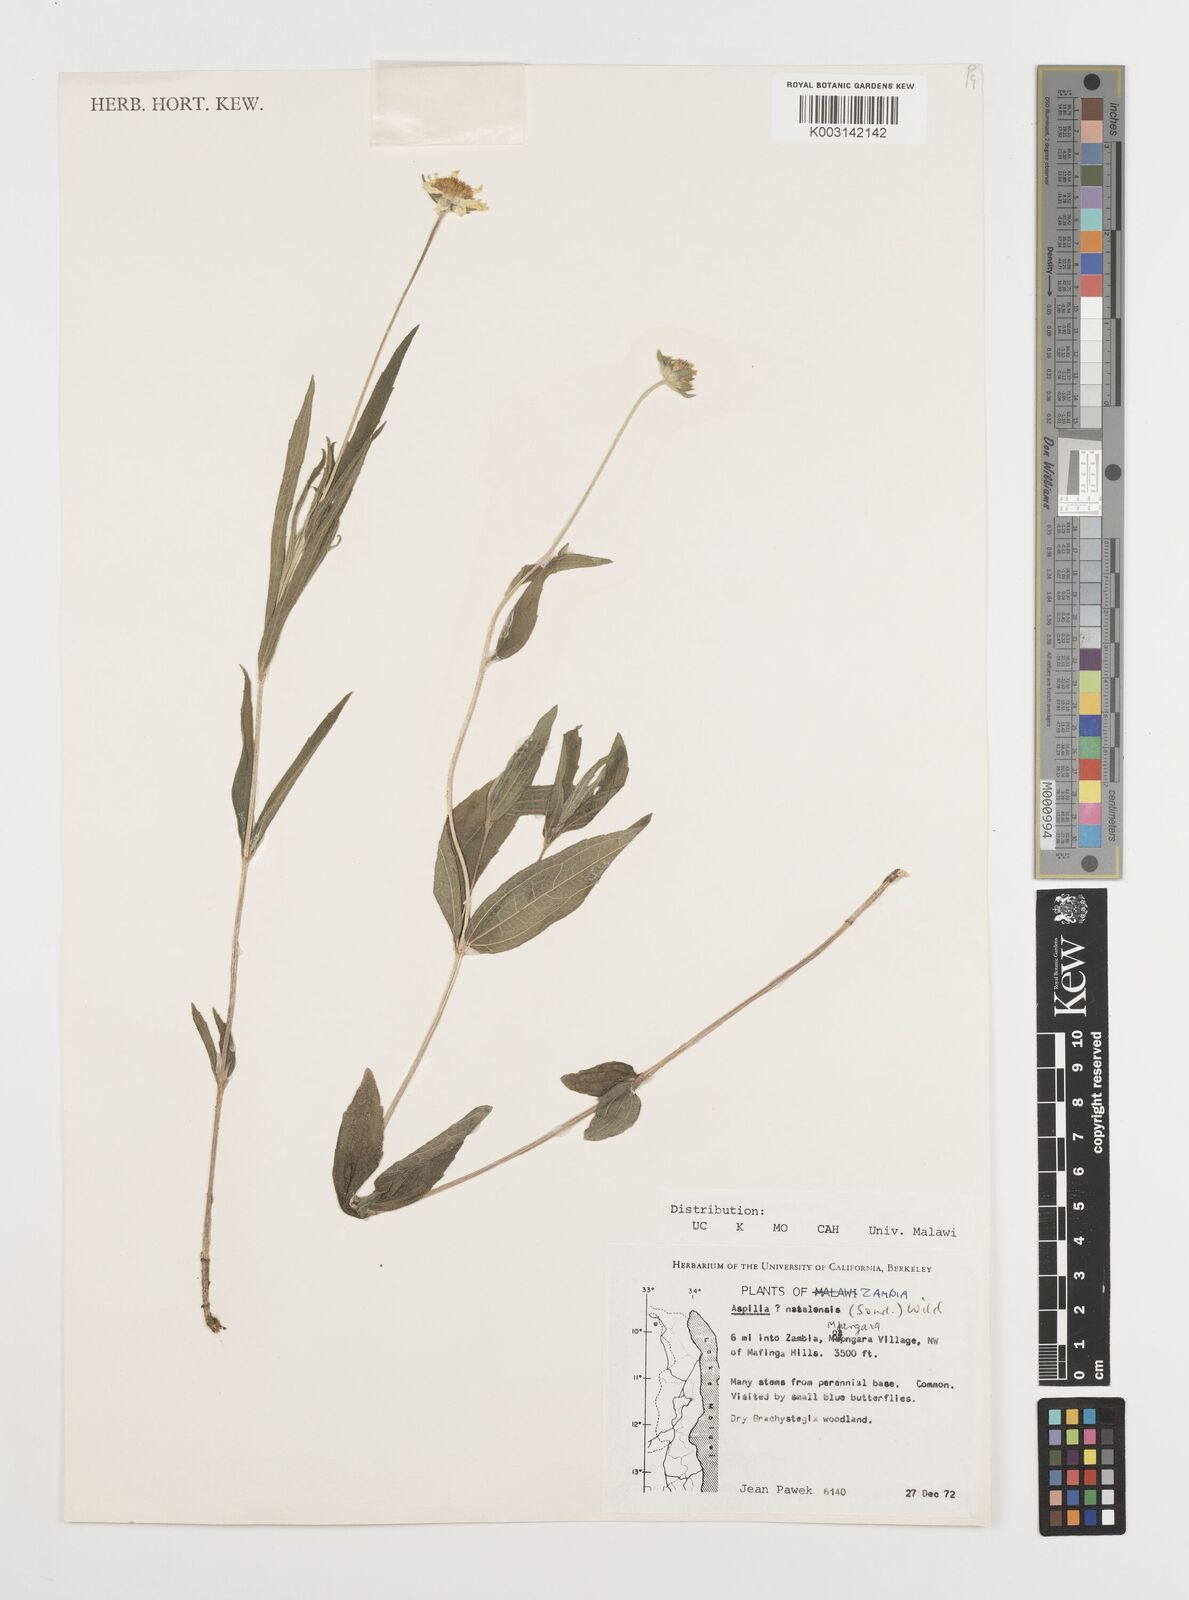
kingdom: Plantae
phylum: Tracheophyta
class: Magnoliopsida
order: Asterales
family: Asteraceae
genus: Aspilia
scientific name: Aspilia natalensis
